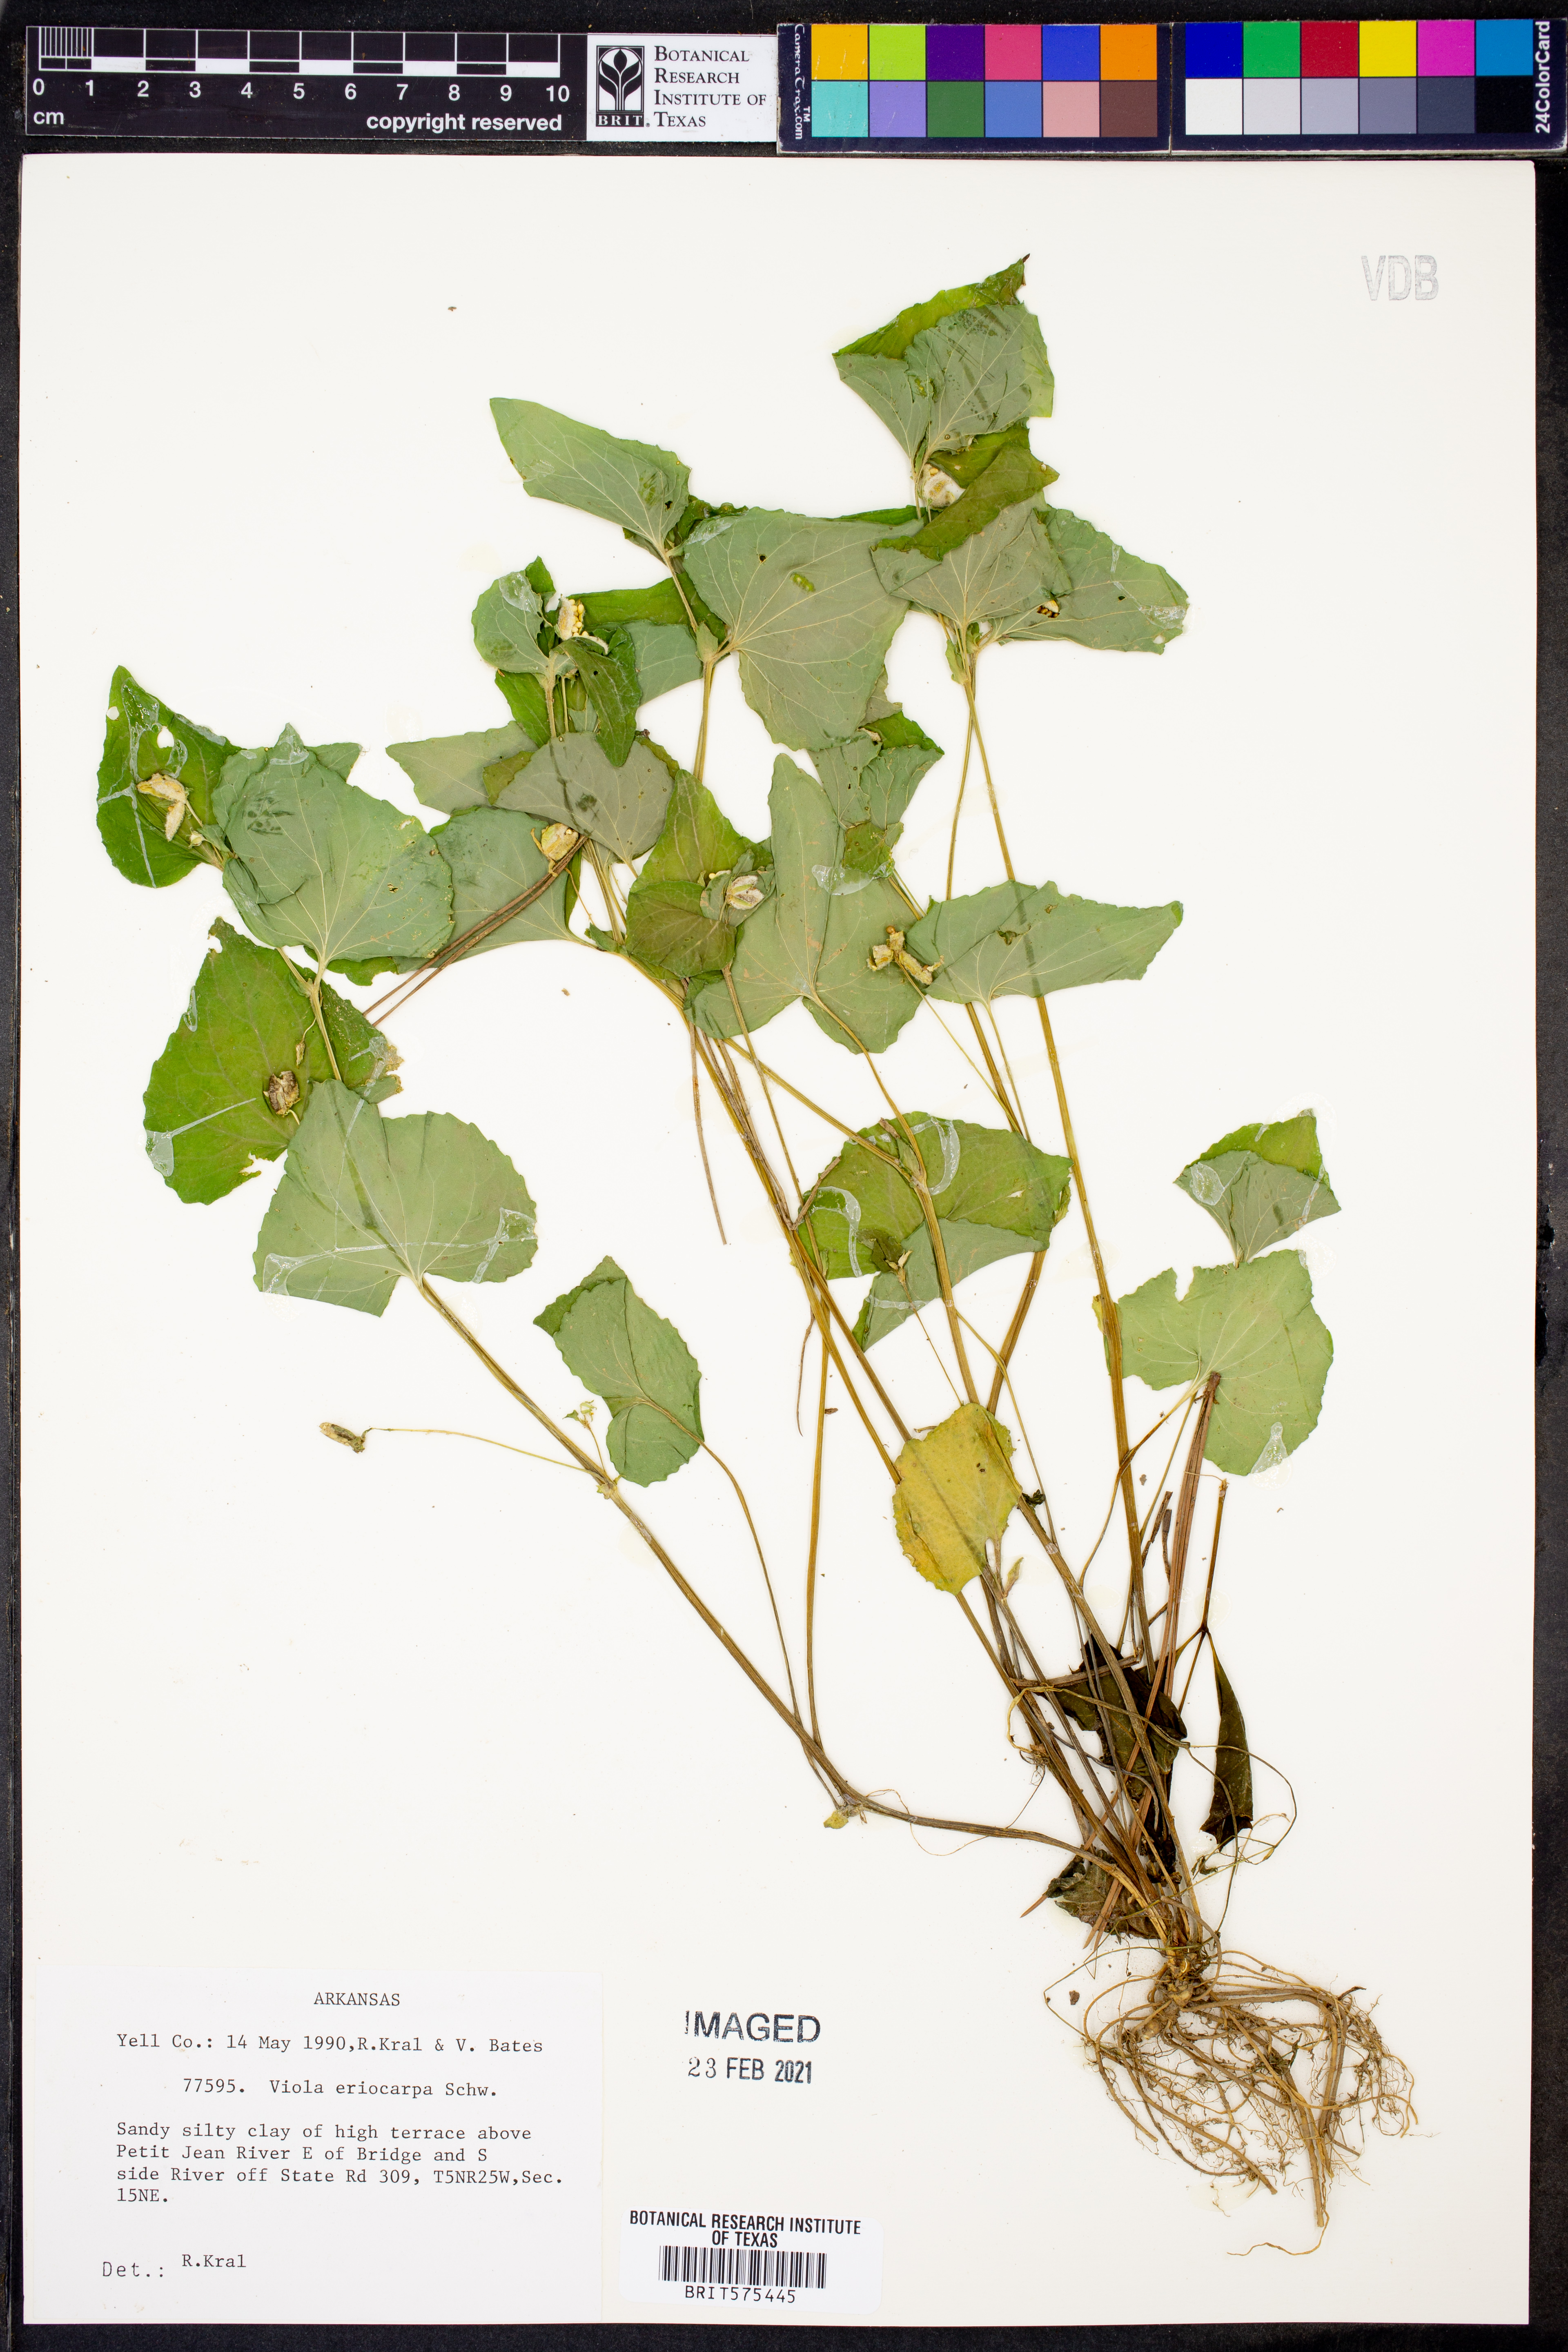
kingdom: Plantae
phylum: Tracheophyta
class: Magnoliopsida
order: Malpighiales
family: Violaceae
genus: Viola
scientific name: Viola eriocarpa
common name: Smooth yellow violet
